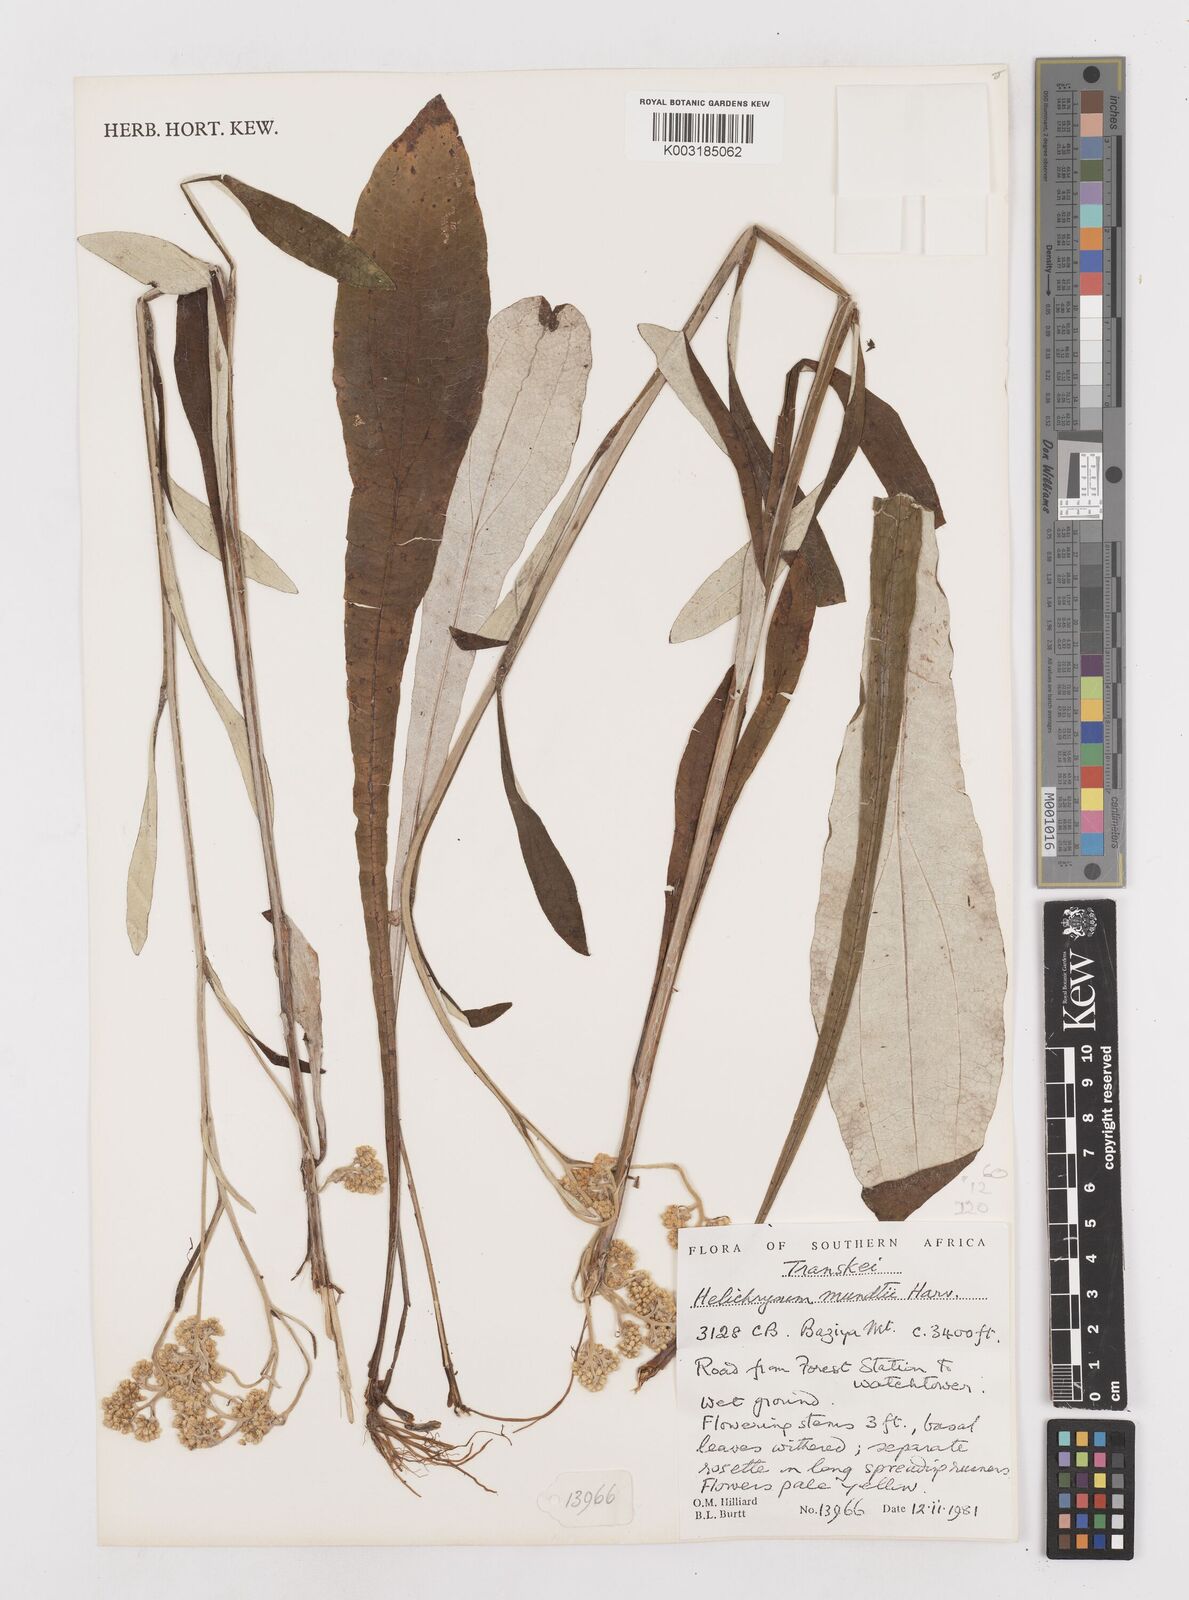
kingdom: Plantae
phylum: Tracheophyta
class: Magnoliopsida
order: Asterales
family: Asteraceae
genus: Helichrysum
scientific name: Helichrysum mundii
